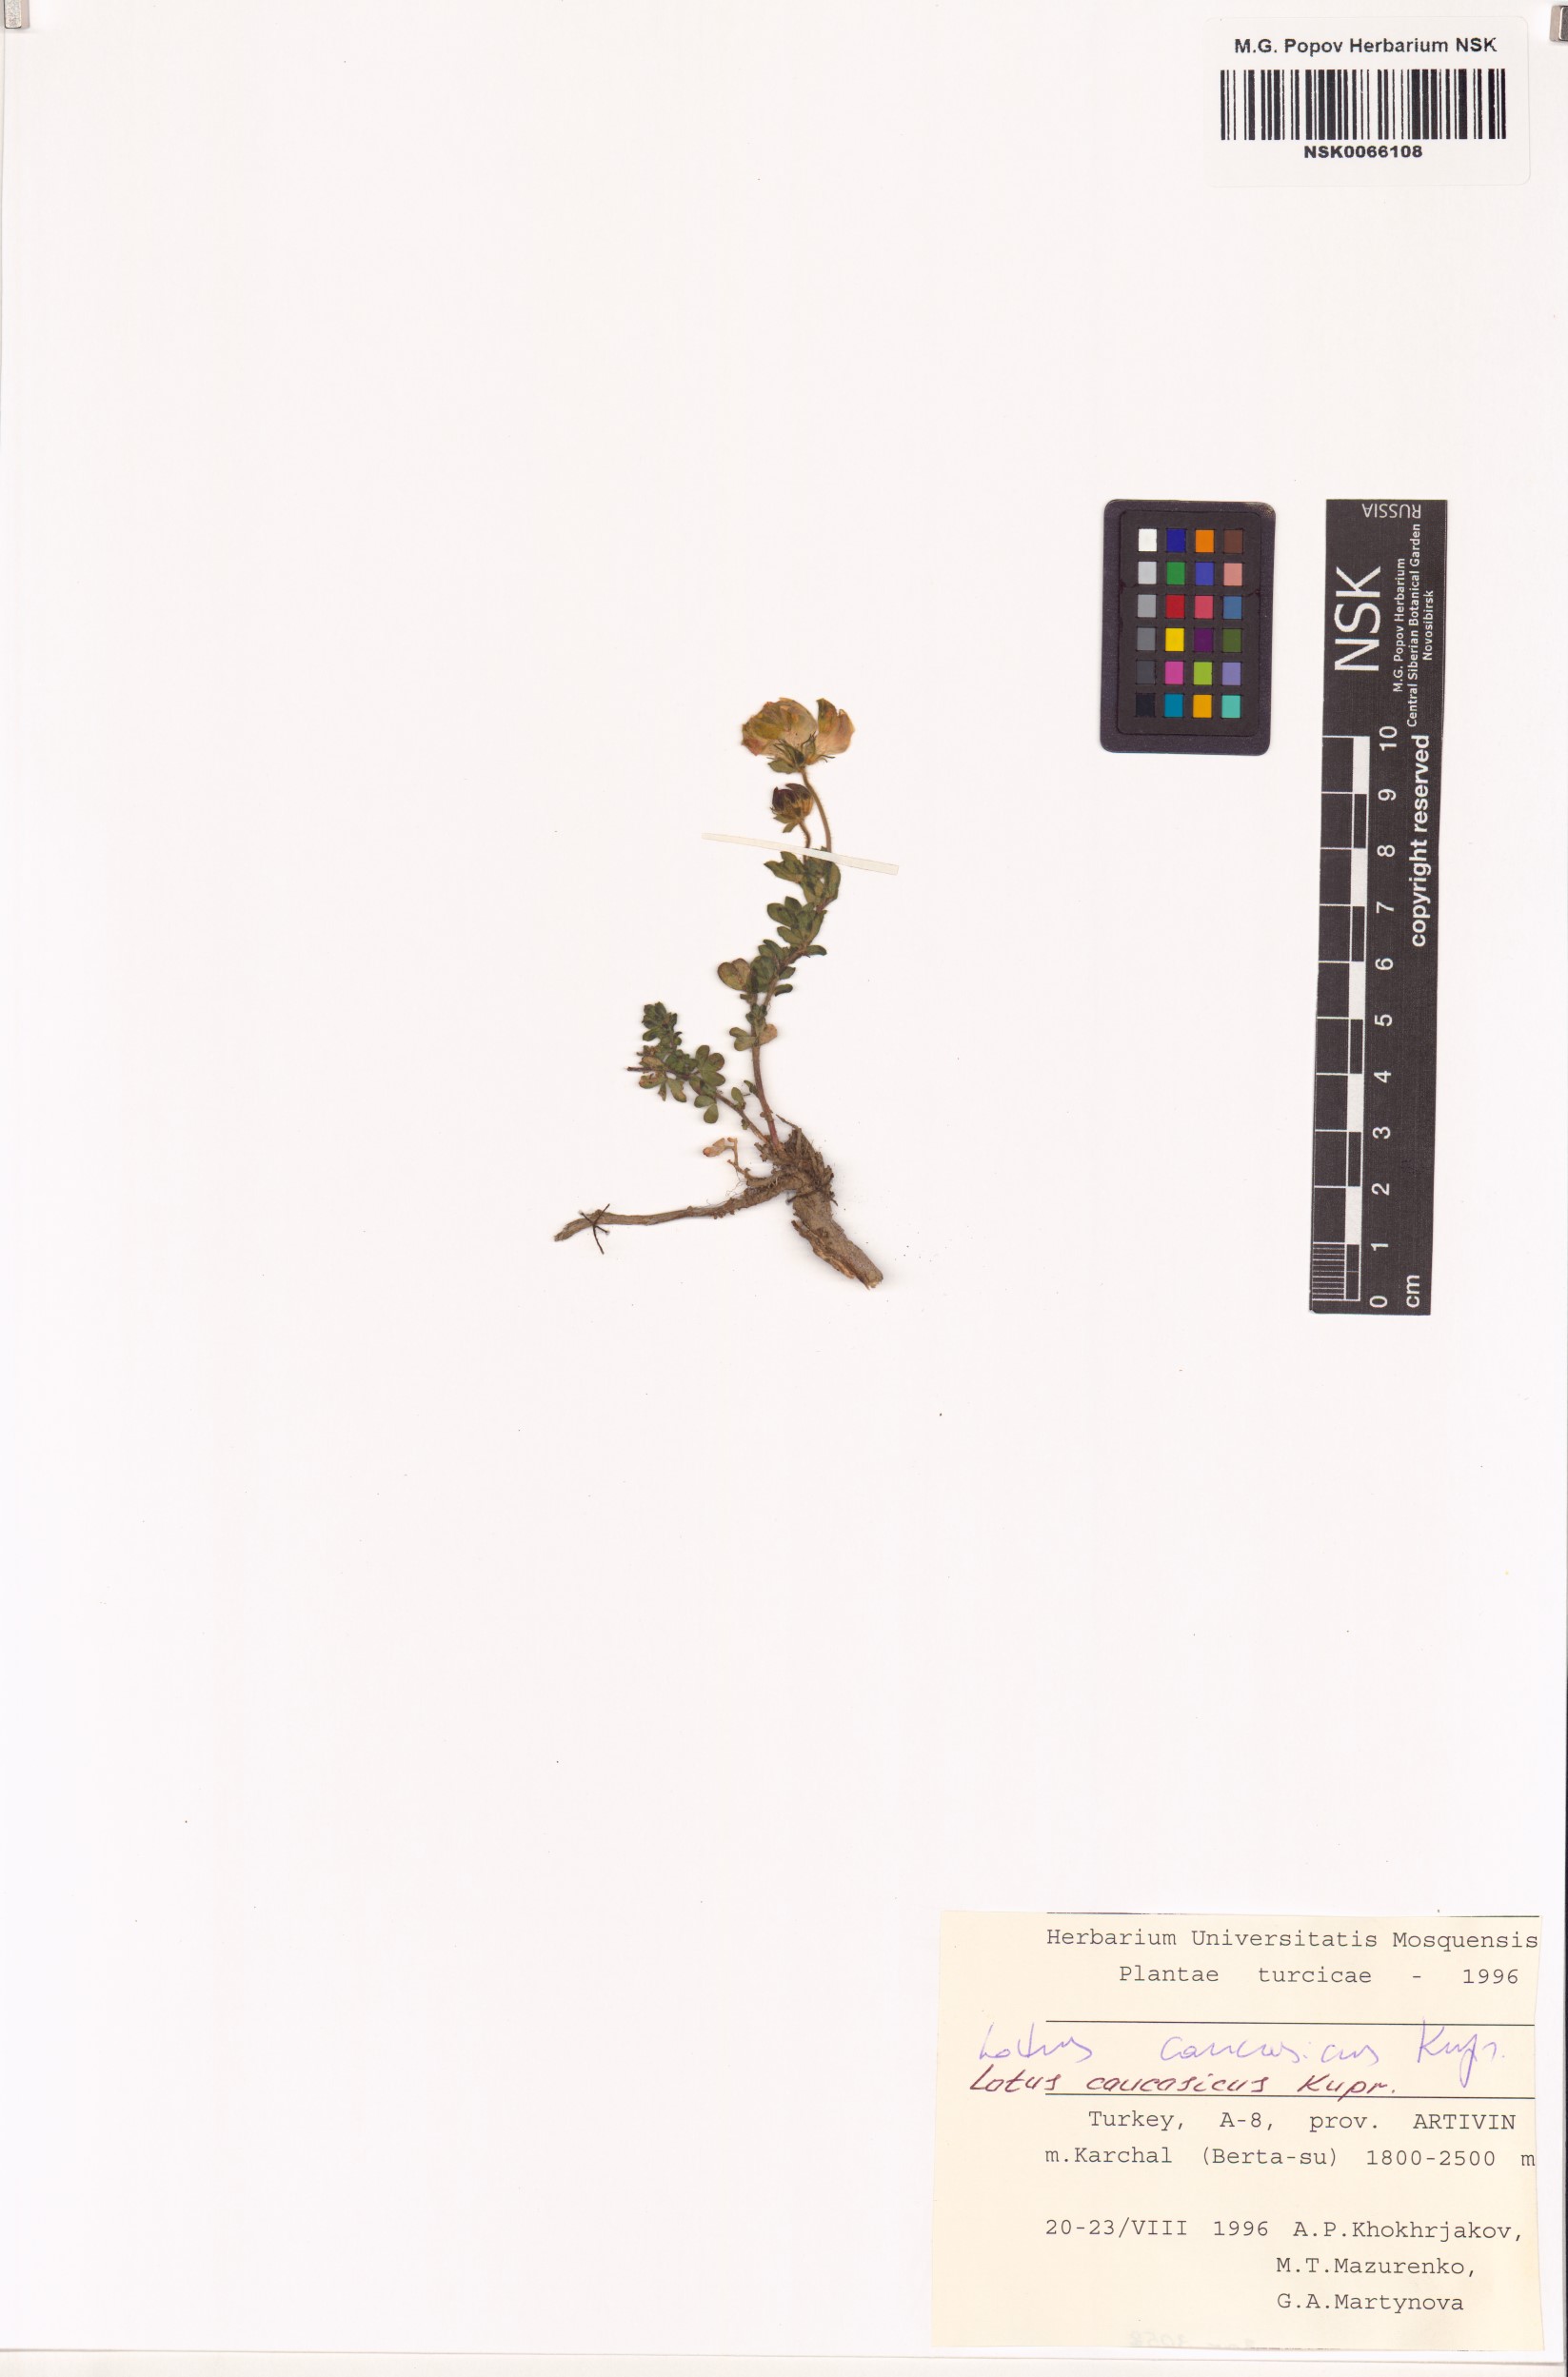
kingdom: Plantae
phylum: Tracheophyta
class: Magnoliopsida
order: Fabales
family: Fabaceae
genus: Lotus
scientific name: Lotus corniculatus
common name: Common bird's-foot-trefoil
